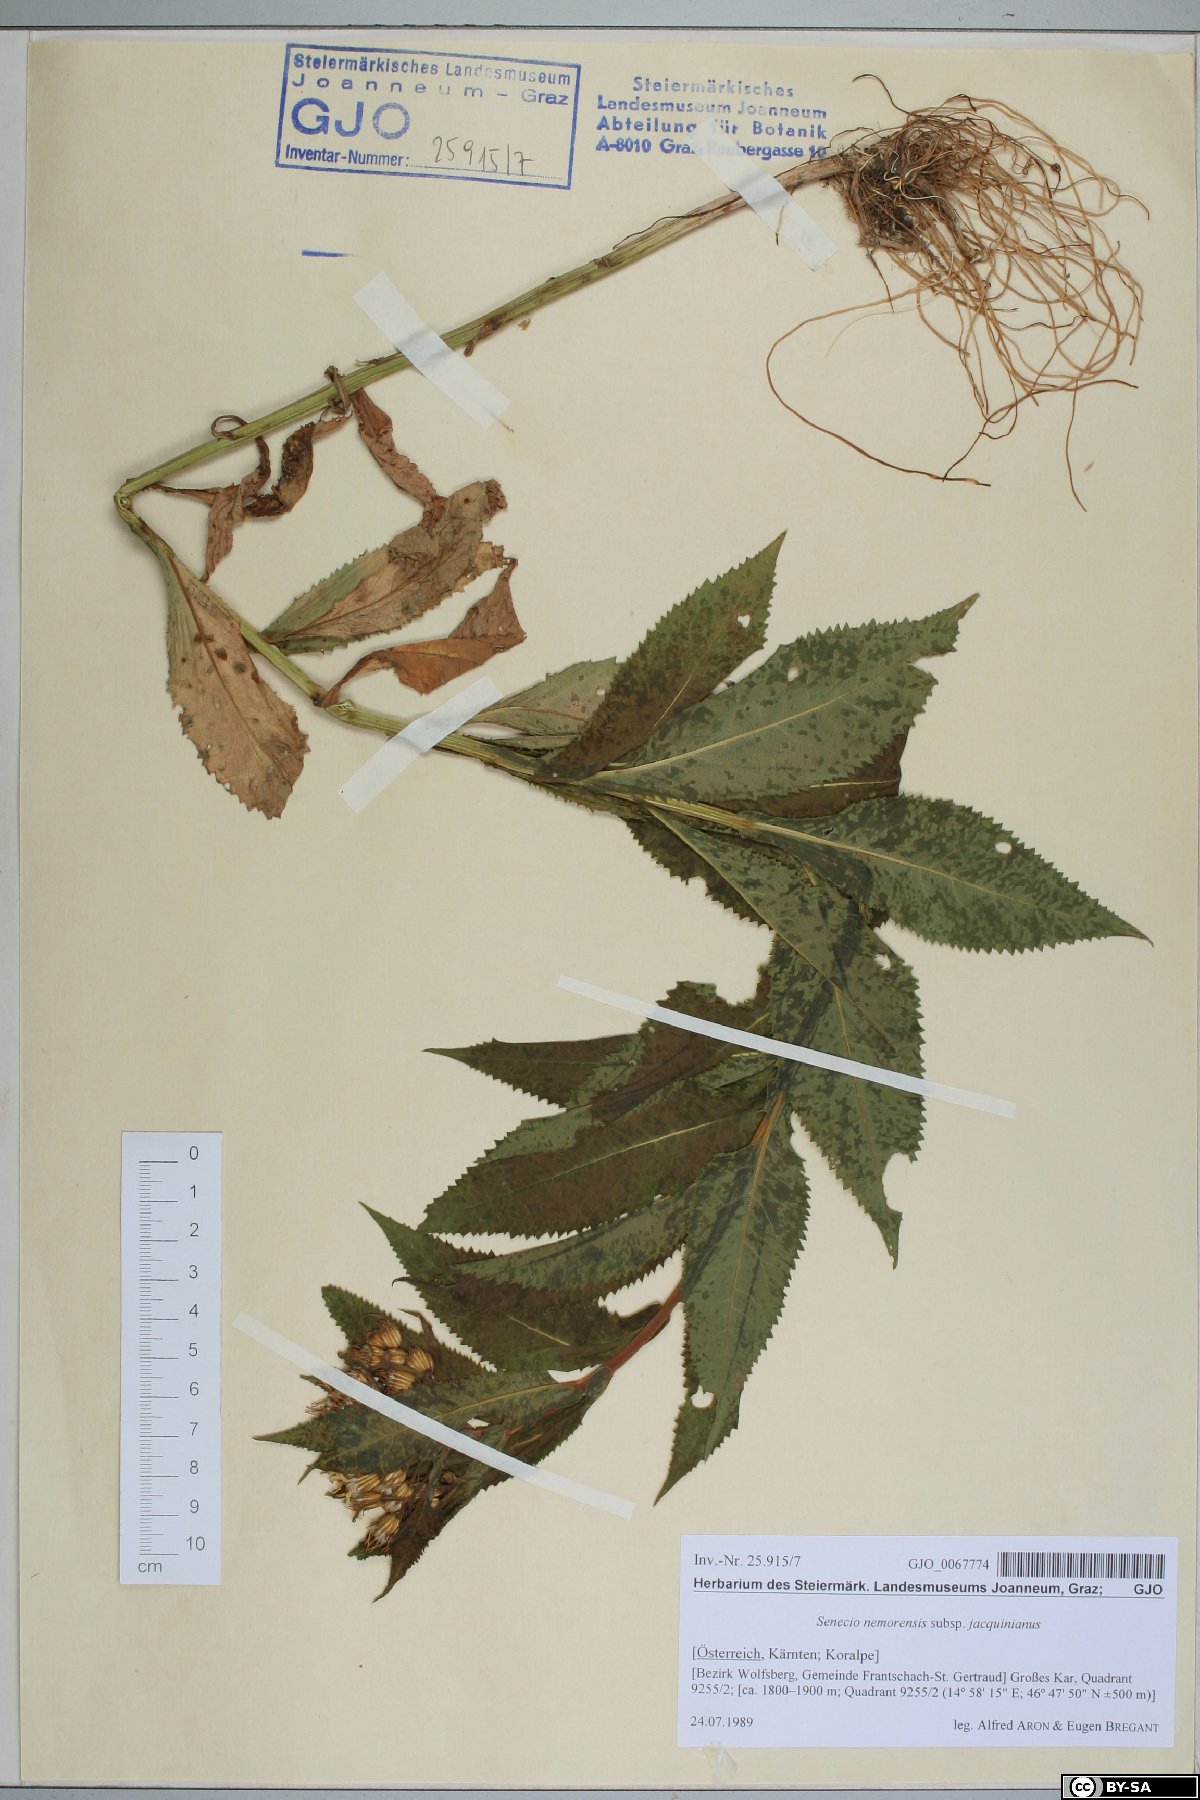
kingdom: Plantae
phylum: Tracheophyta
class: Magnoliopsida
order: Asterales
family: Asteraceae
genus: Senecio
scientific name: Senecio germanicus
